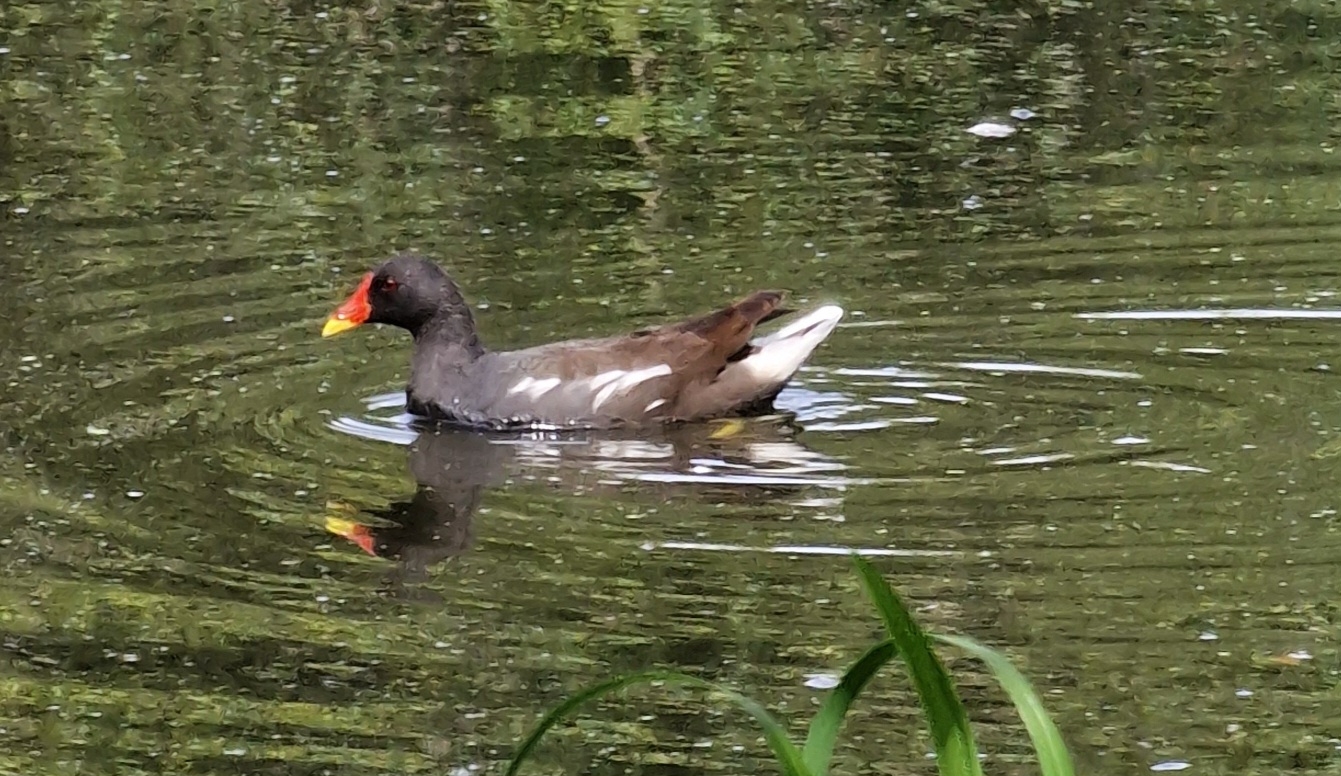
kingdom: Animalia
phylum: Chordata
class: Aves
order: Gruiformes
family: Rallidae
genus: Gallinula
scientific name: Gallinula chloropus
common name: Grønbenet rørhøne
